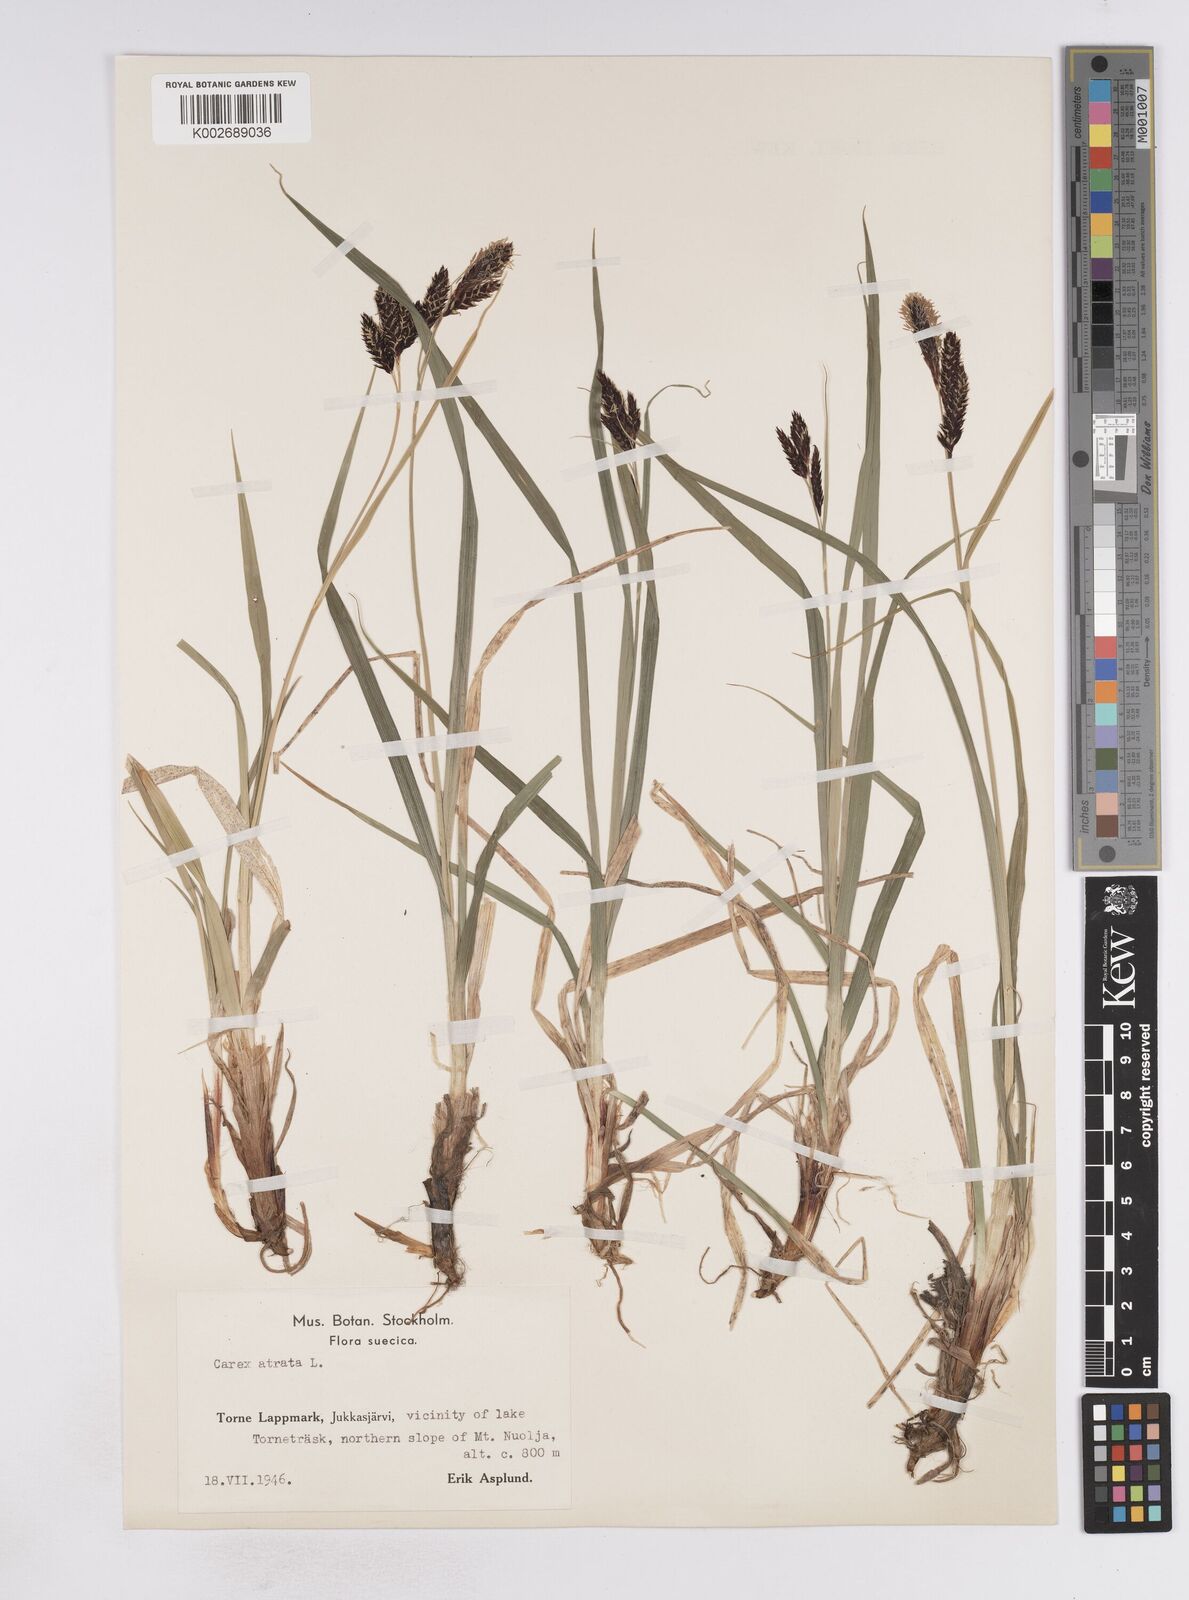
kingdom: Plantae
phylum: Tracheophyta
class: Liliopsida
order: Poales
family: Cyperaceae
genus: Carex
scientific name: Carex atrata
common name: Black alpine sedge
